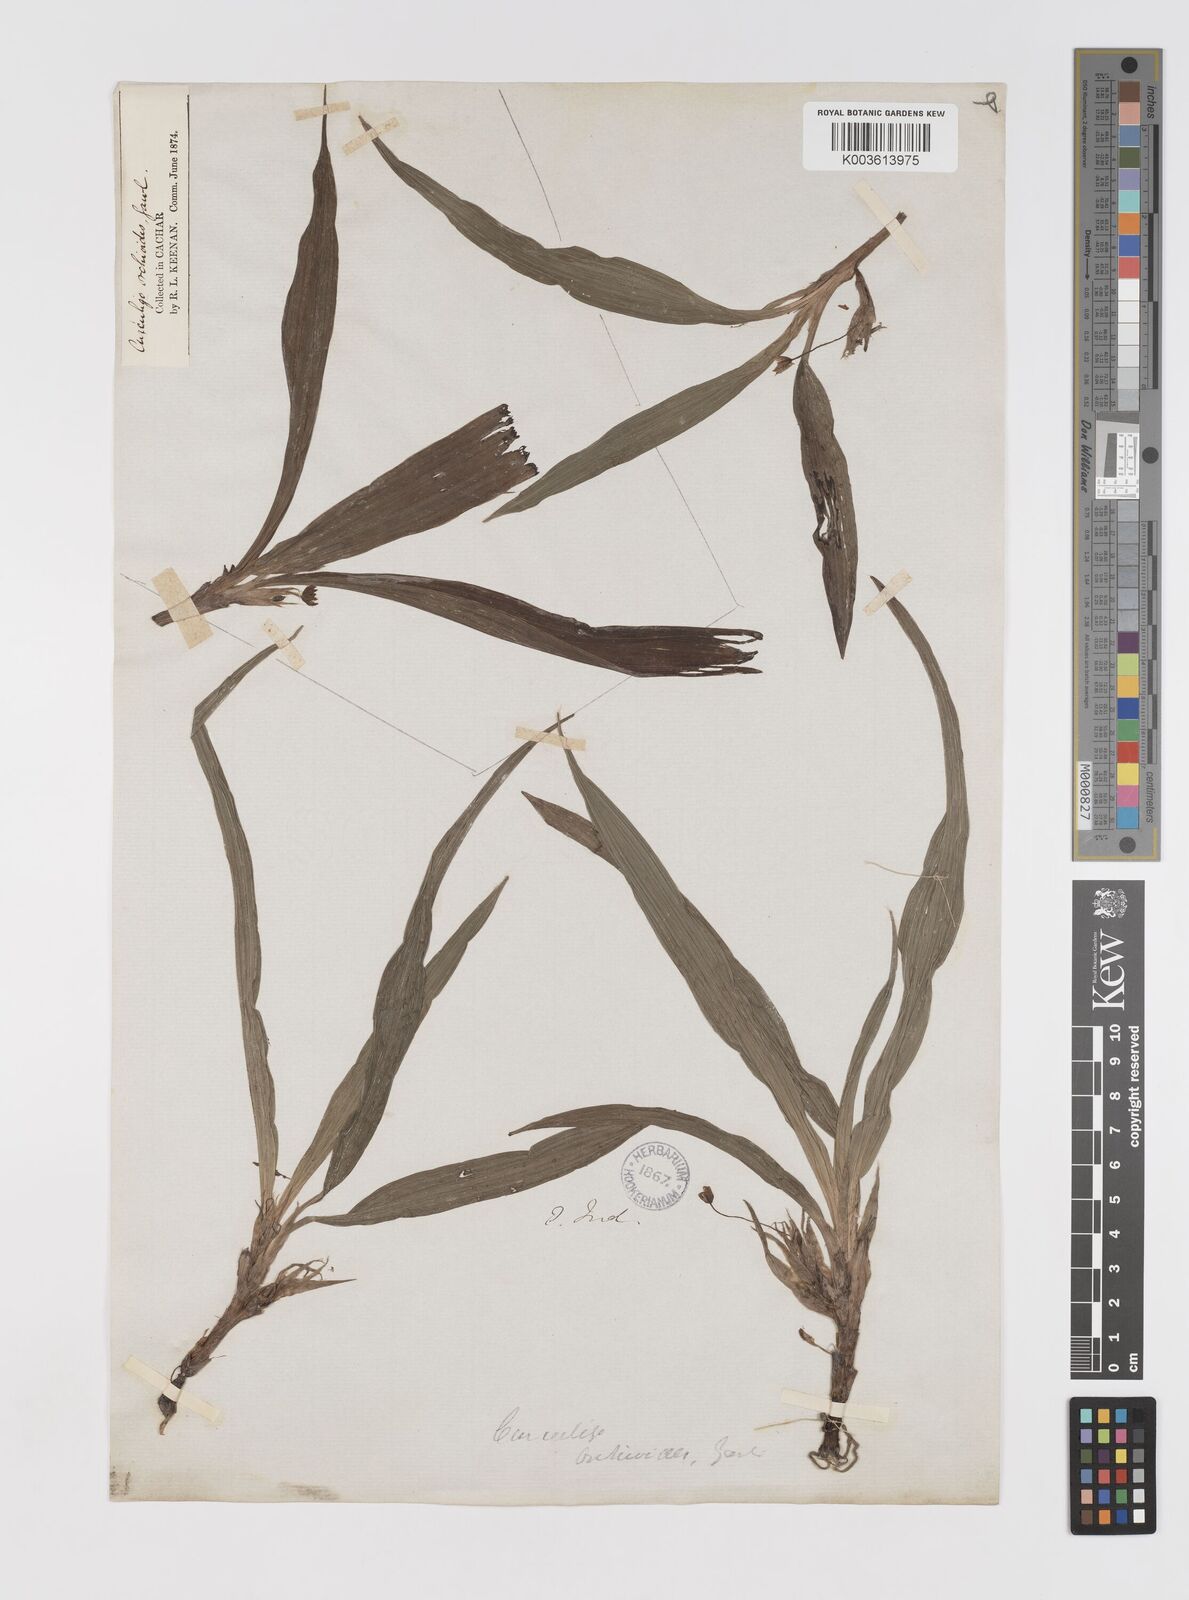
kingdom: Plantae
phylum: Tracheophyta
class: Liliopsida
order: Asparagales
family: Hypoxidaceae
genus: Curculigo
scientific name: Curculigo orchioides
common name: Golden eye-grass
